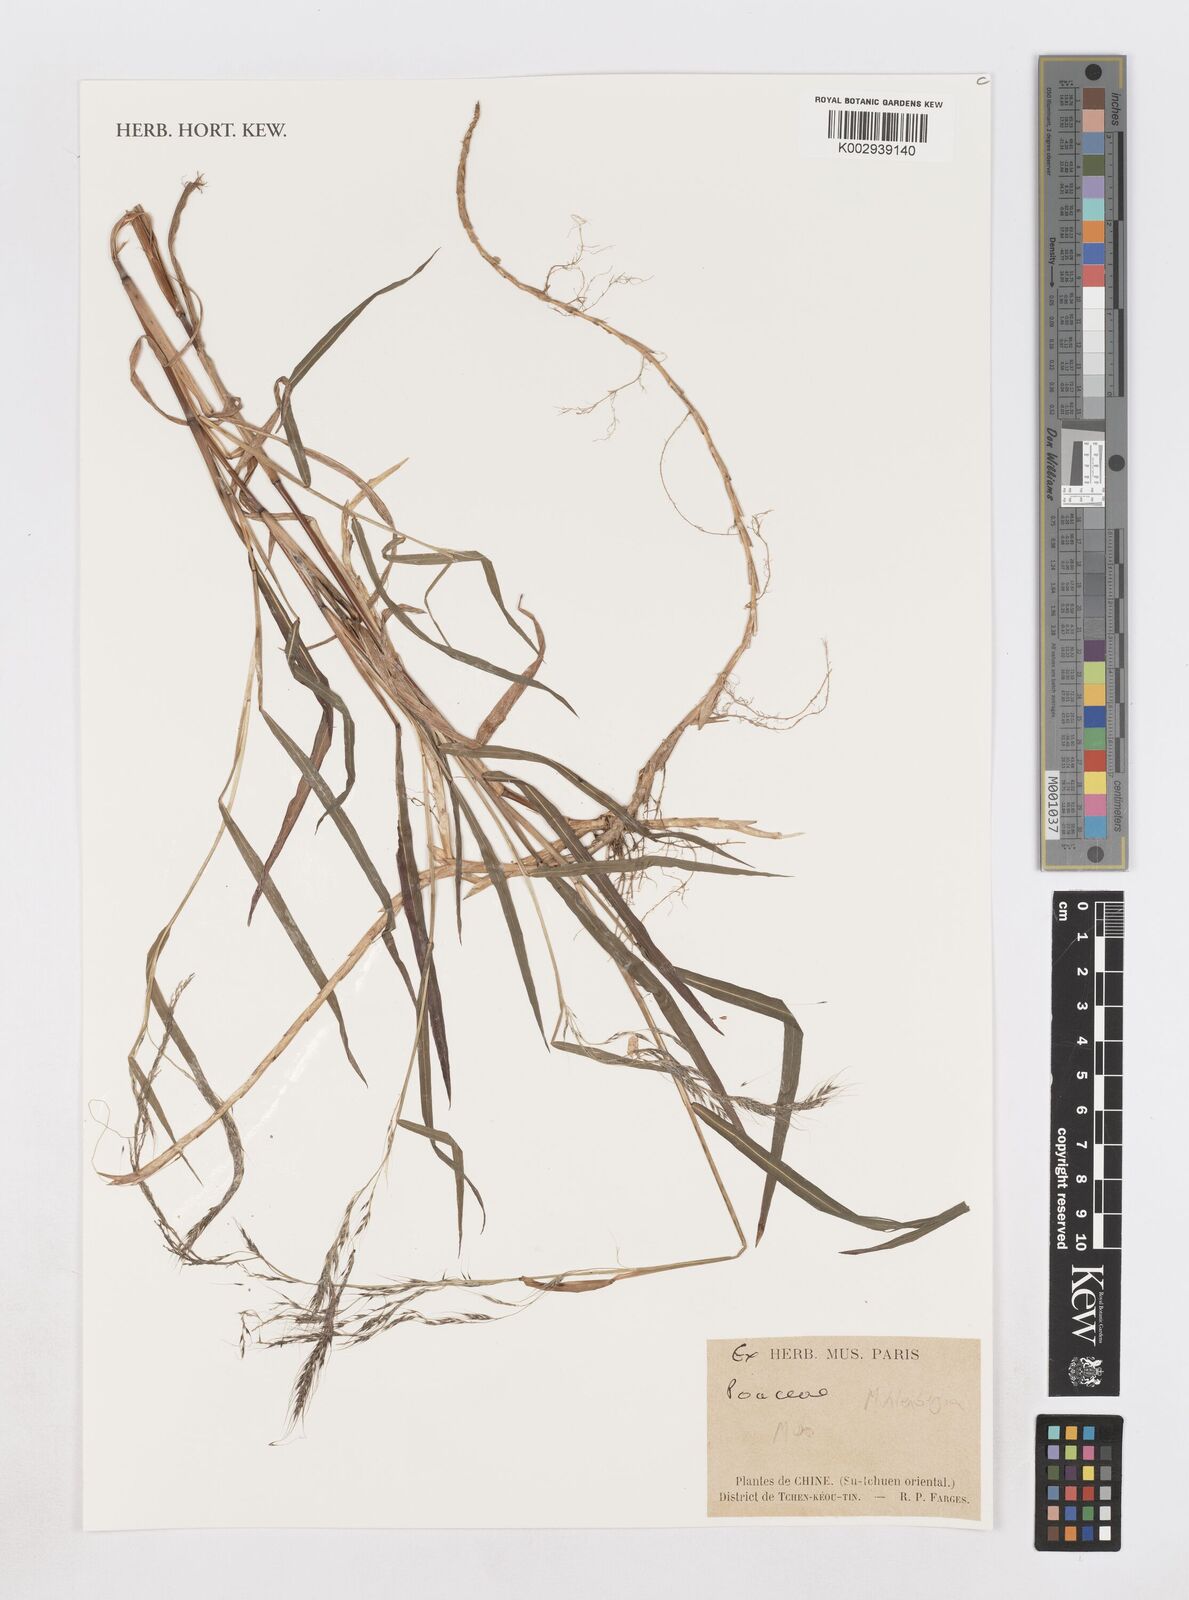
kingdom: Plantae
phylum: Tracheophyta
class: Liliopsida
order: Poales
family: Poaceae
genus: Muhlenbergia
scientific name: Muhlenbergia
